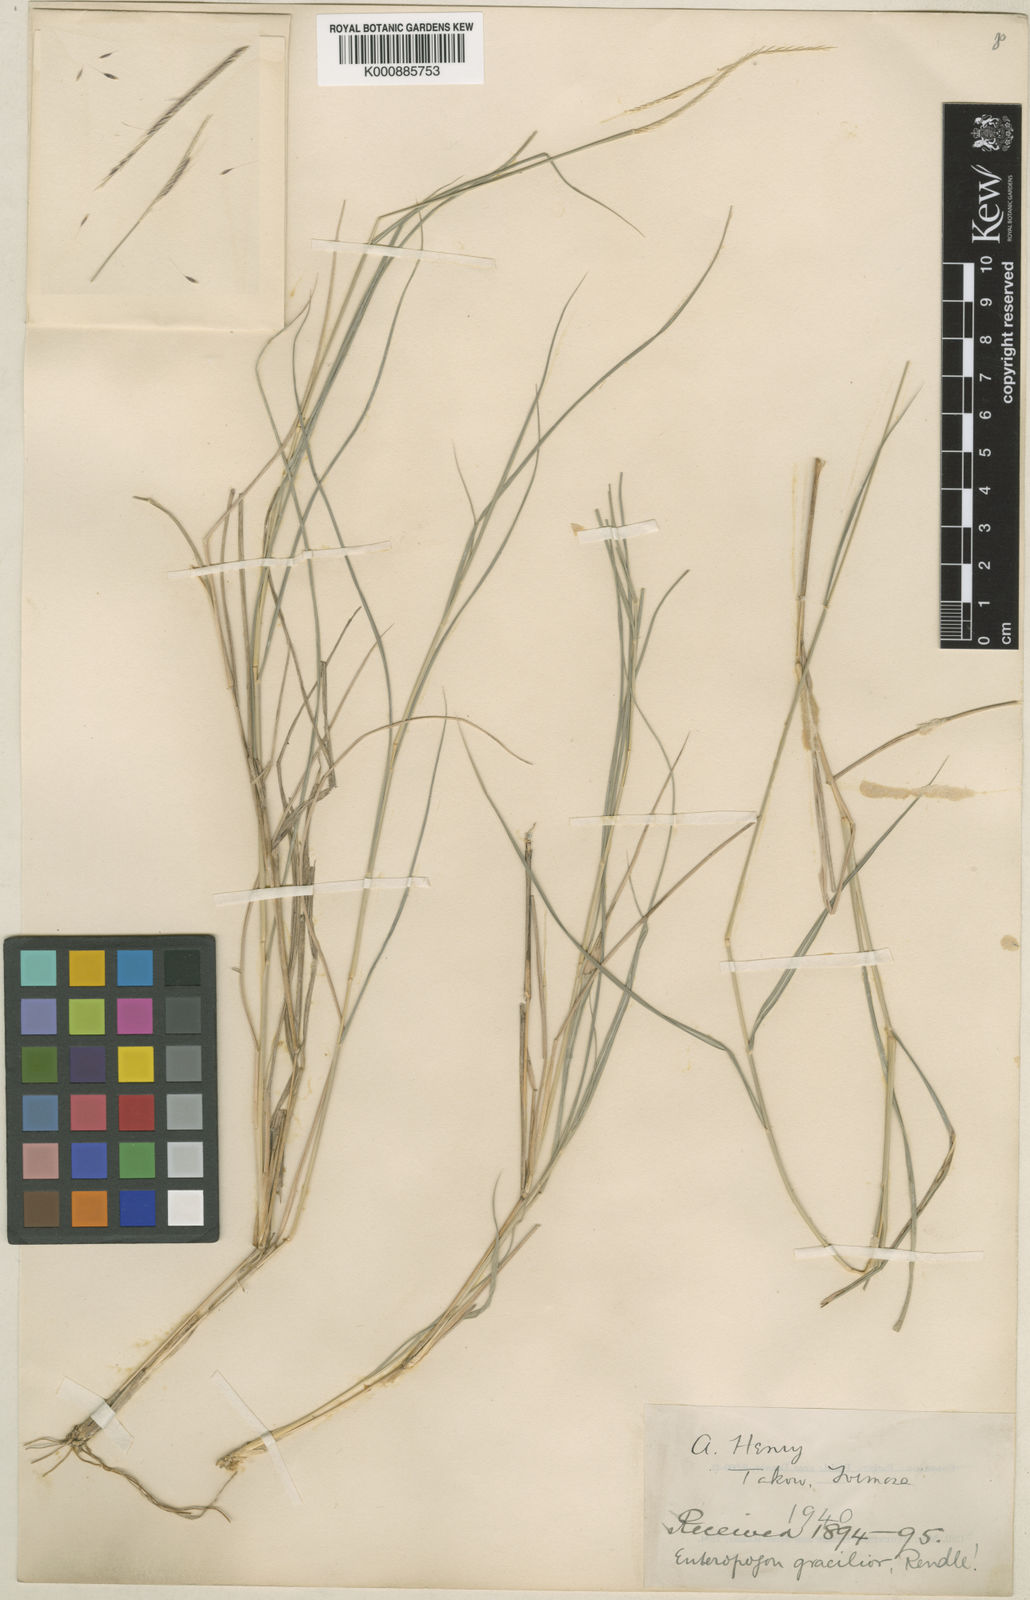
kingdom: Plantae
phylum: Tracheophyta
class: Liliopsida
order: Poales
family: Poaceae
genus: Enteropogon
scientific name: Enteropogon unispiceus
